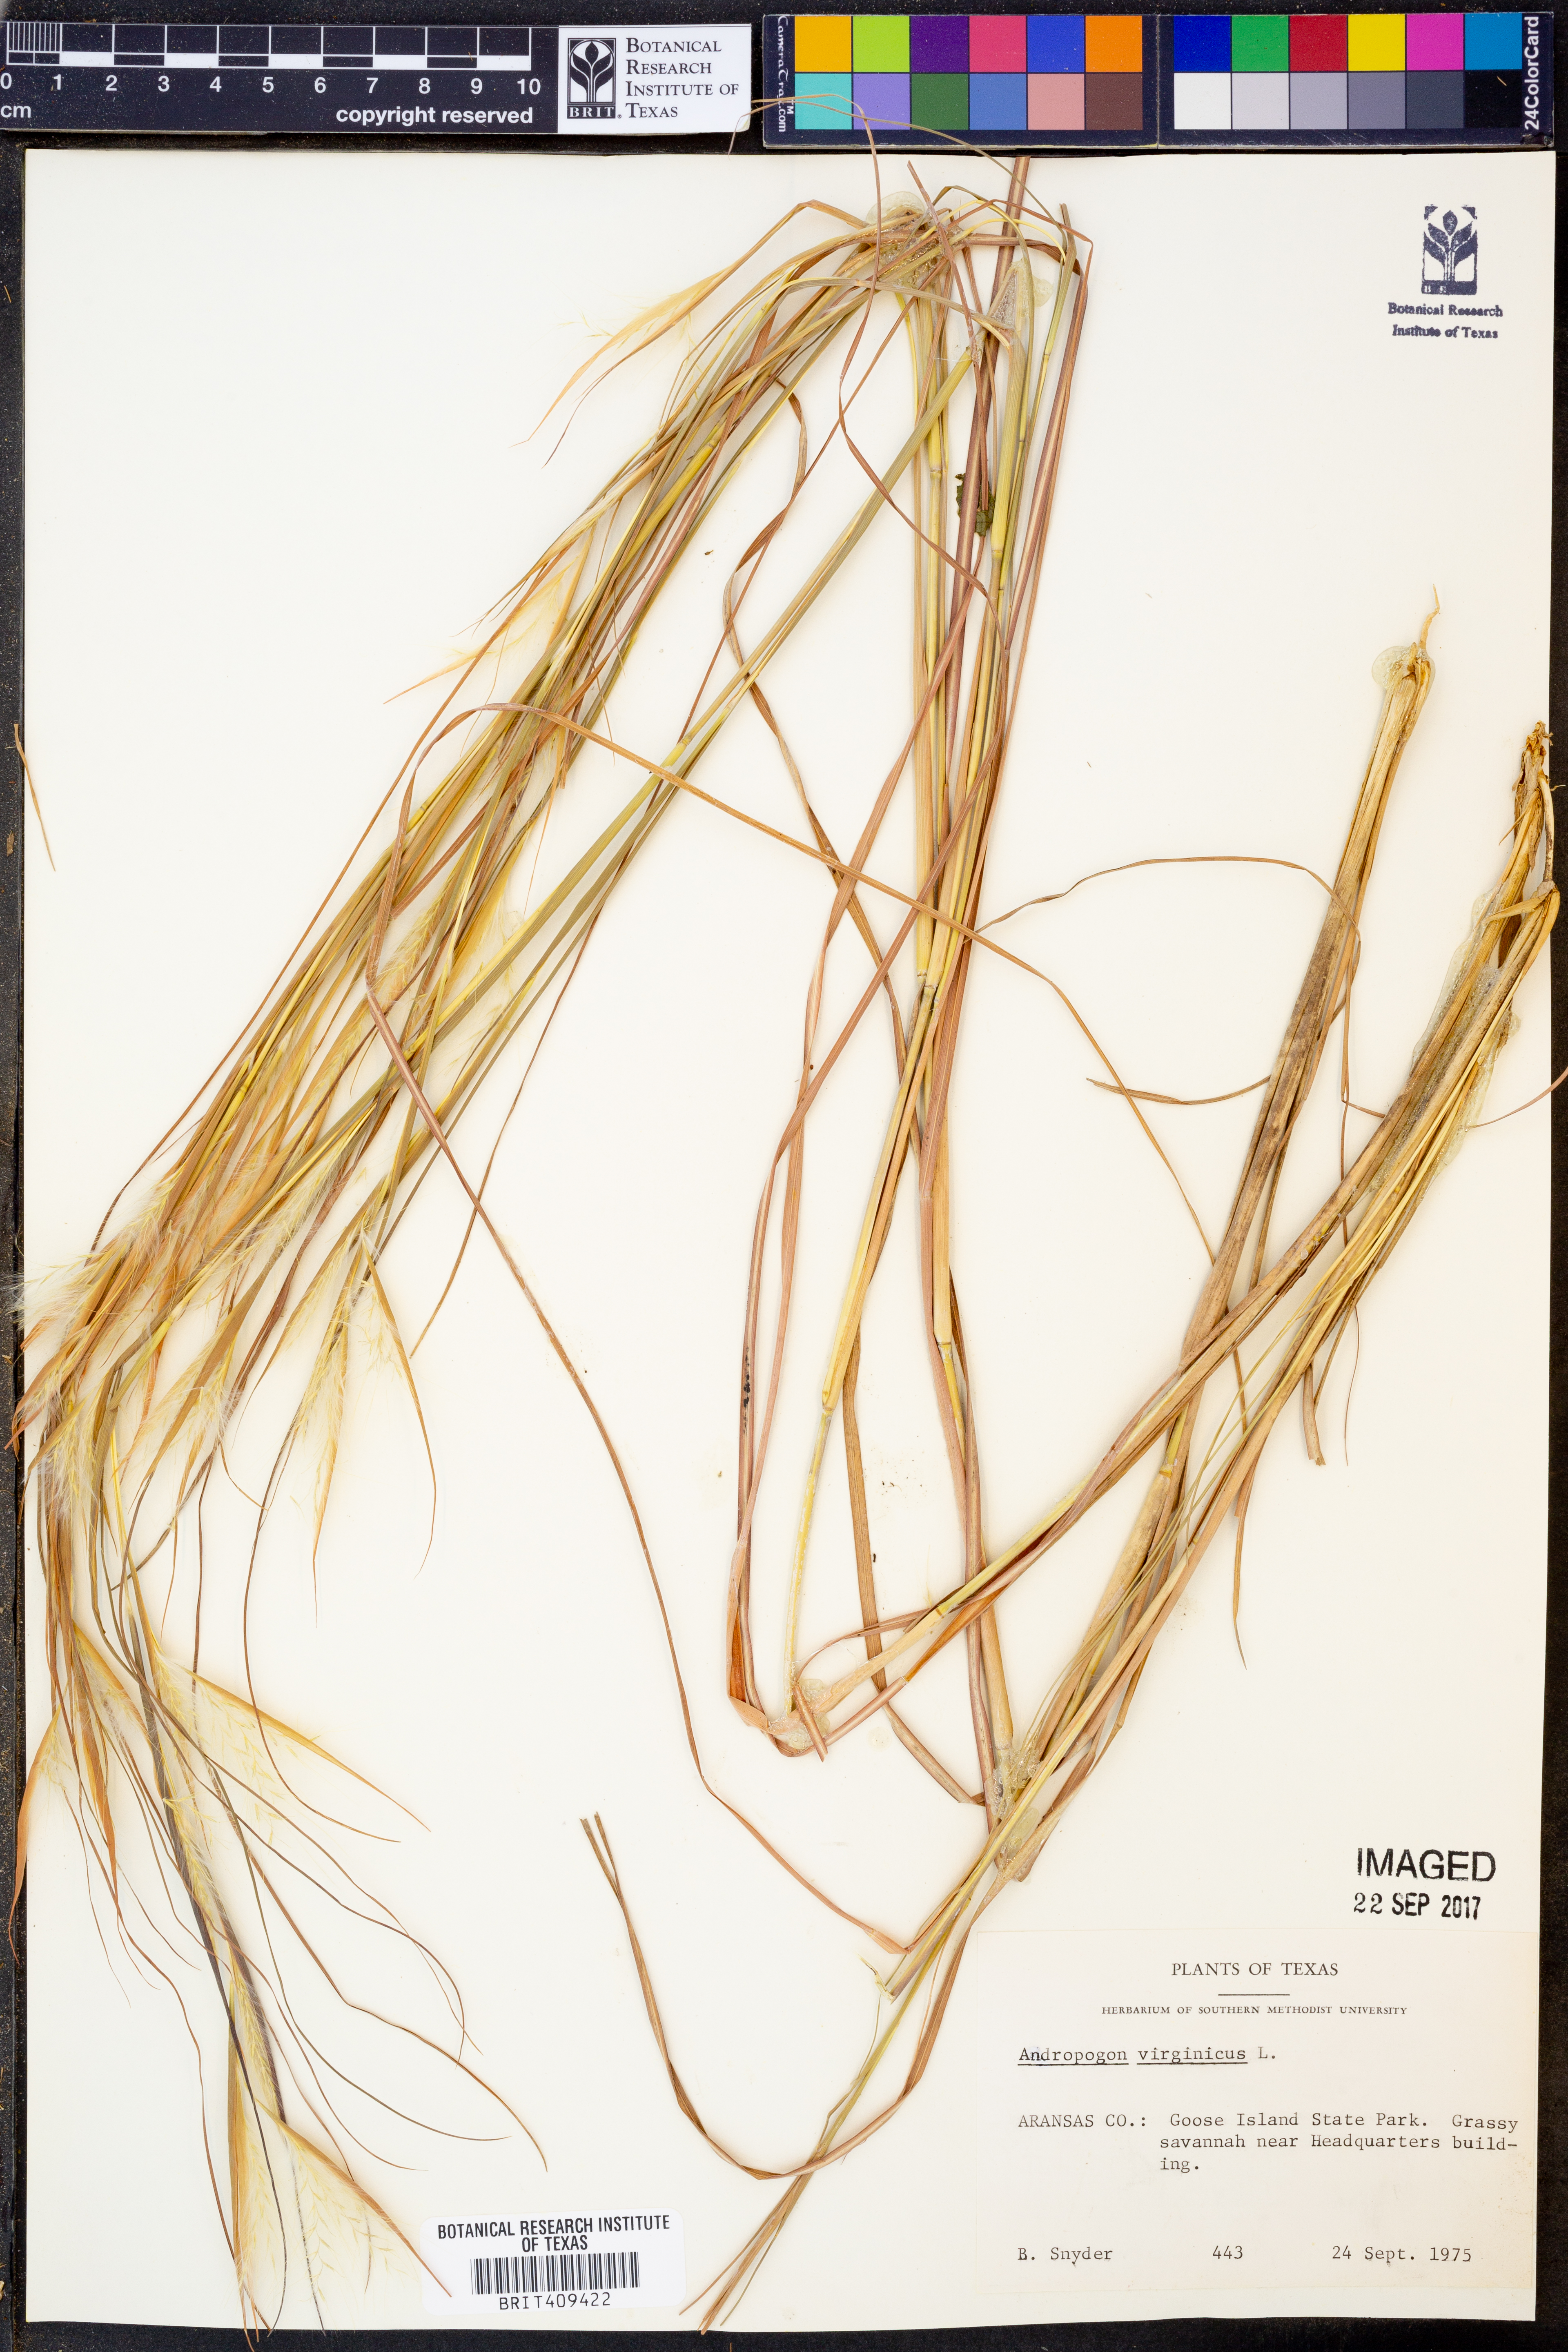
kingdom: Plantae
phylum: Tracheophyta
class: Liliopsida
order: Poales
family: Poaceae
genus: Andropogon
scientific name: Andropogon virginicus
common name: Broomsedge bluestem
